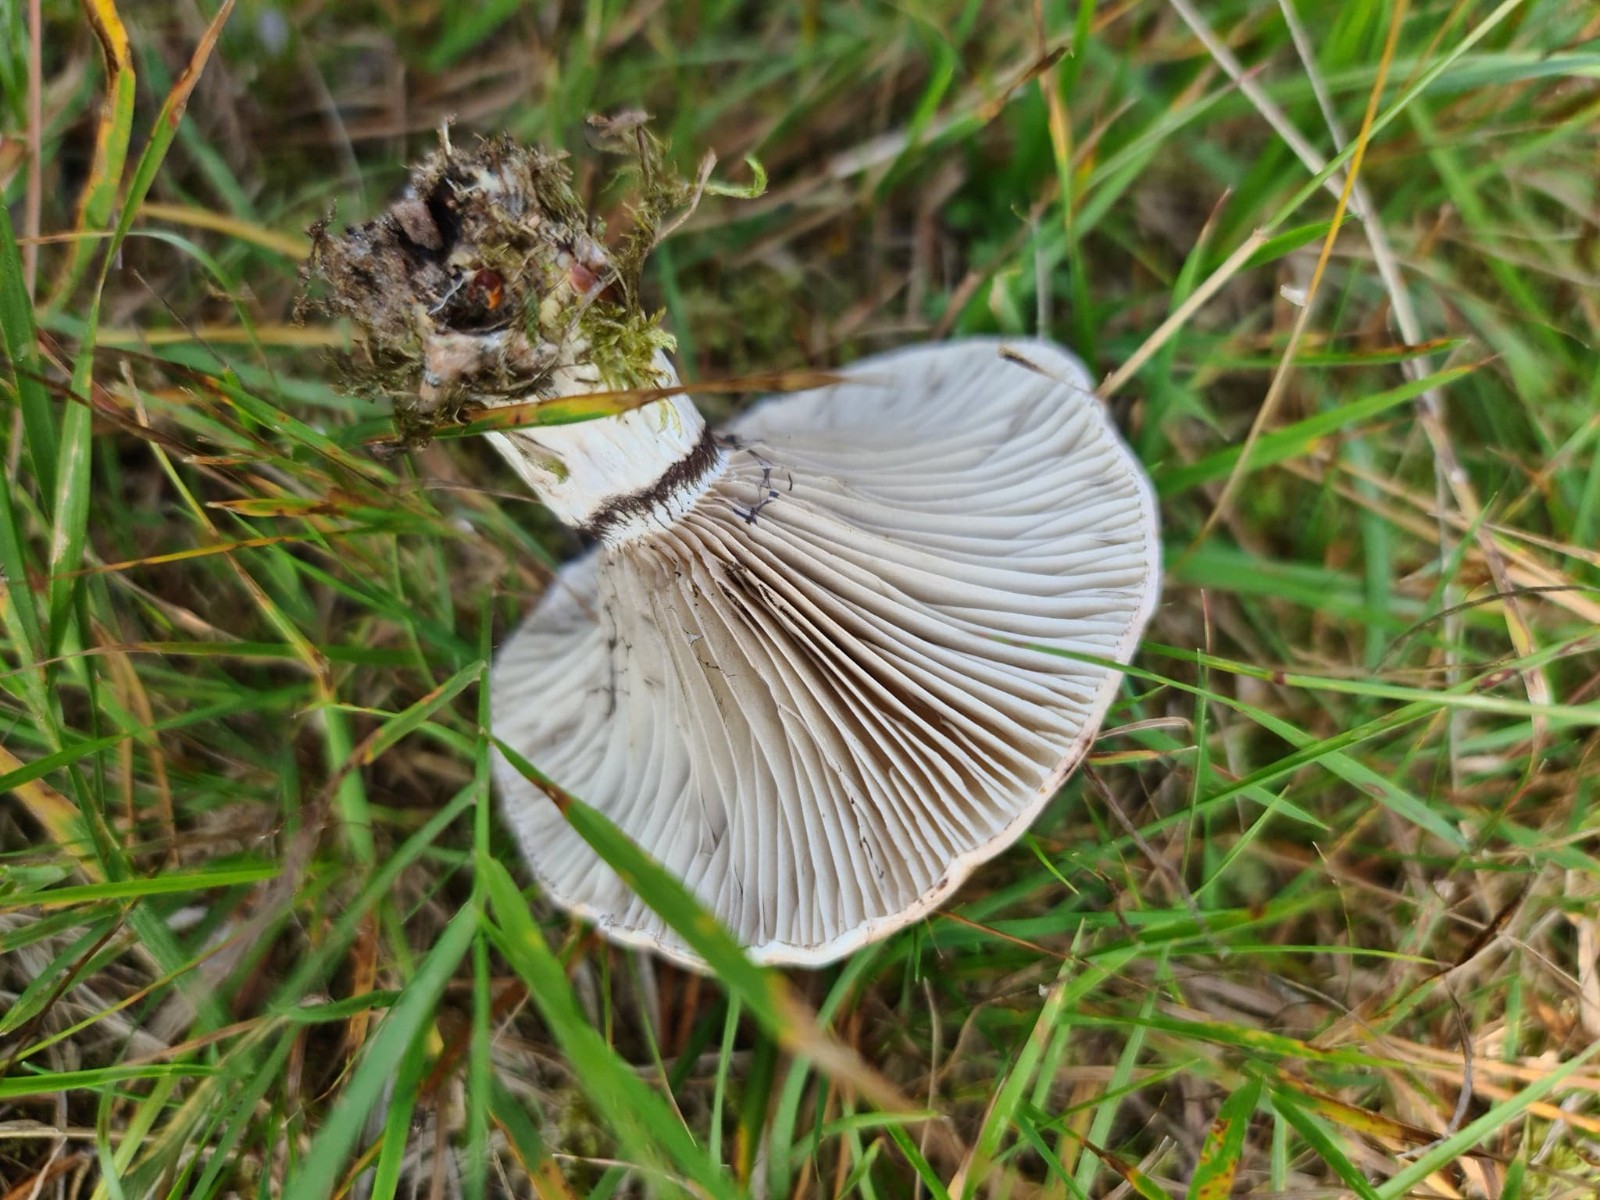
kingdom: Fungi
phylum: Basidiomycota
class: Agaricomycetes
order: Boletales
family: Gomphidiaceae
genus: Gomphidius
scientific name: Gomphidius glutinosus
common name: grå slimslør
